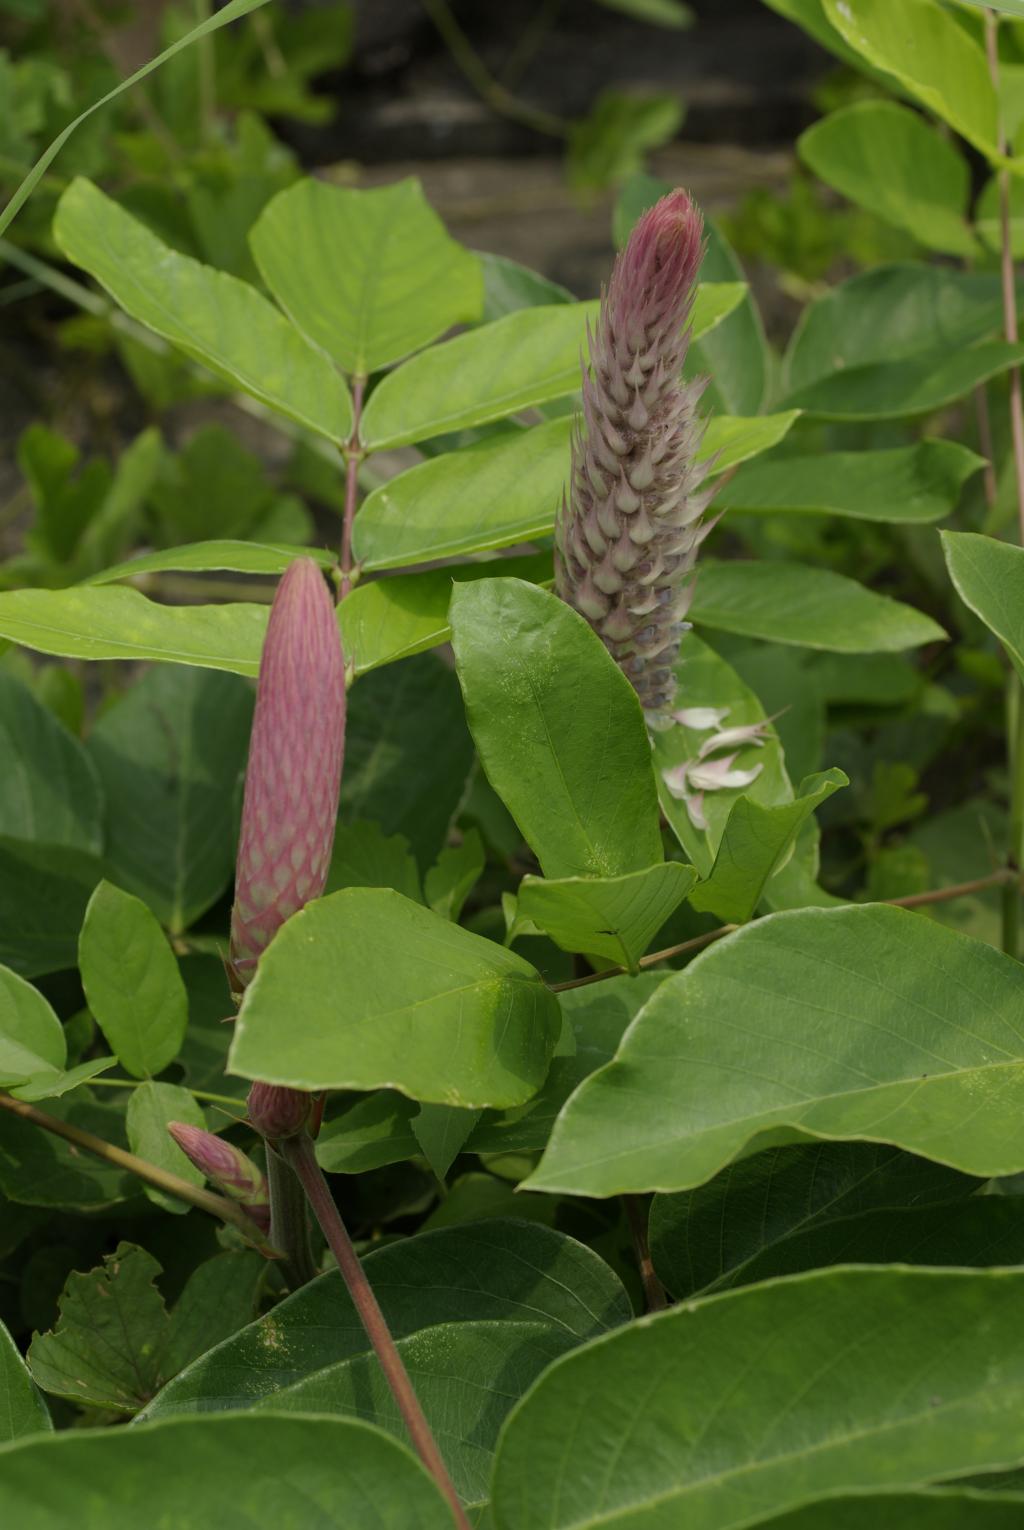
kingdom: Plantae
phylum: Tracheophyta
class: Magnoliopsida
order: Fabales
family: Fabaceae
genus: Uraria
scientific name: Uraria crinita
